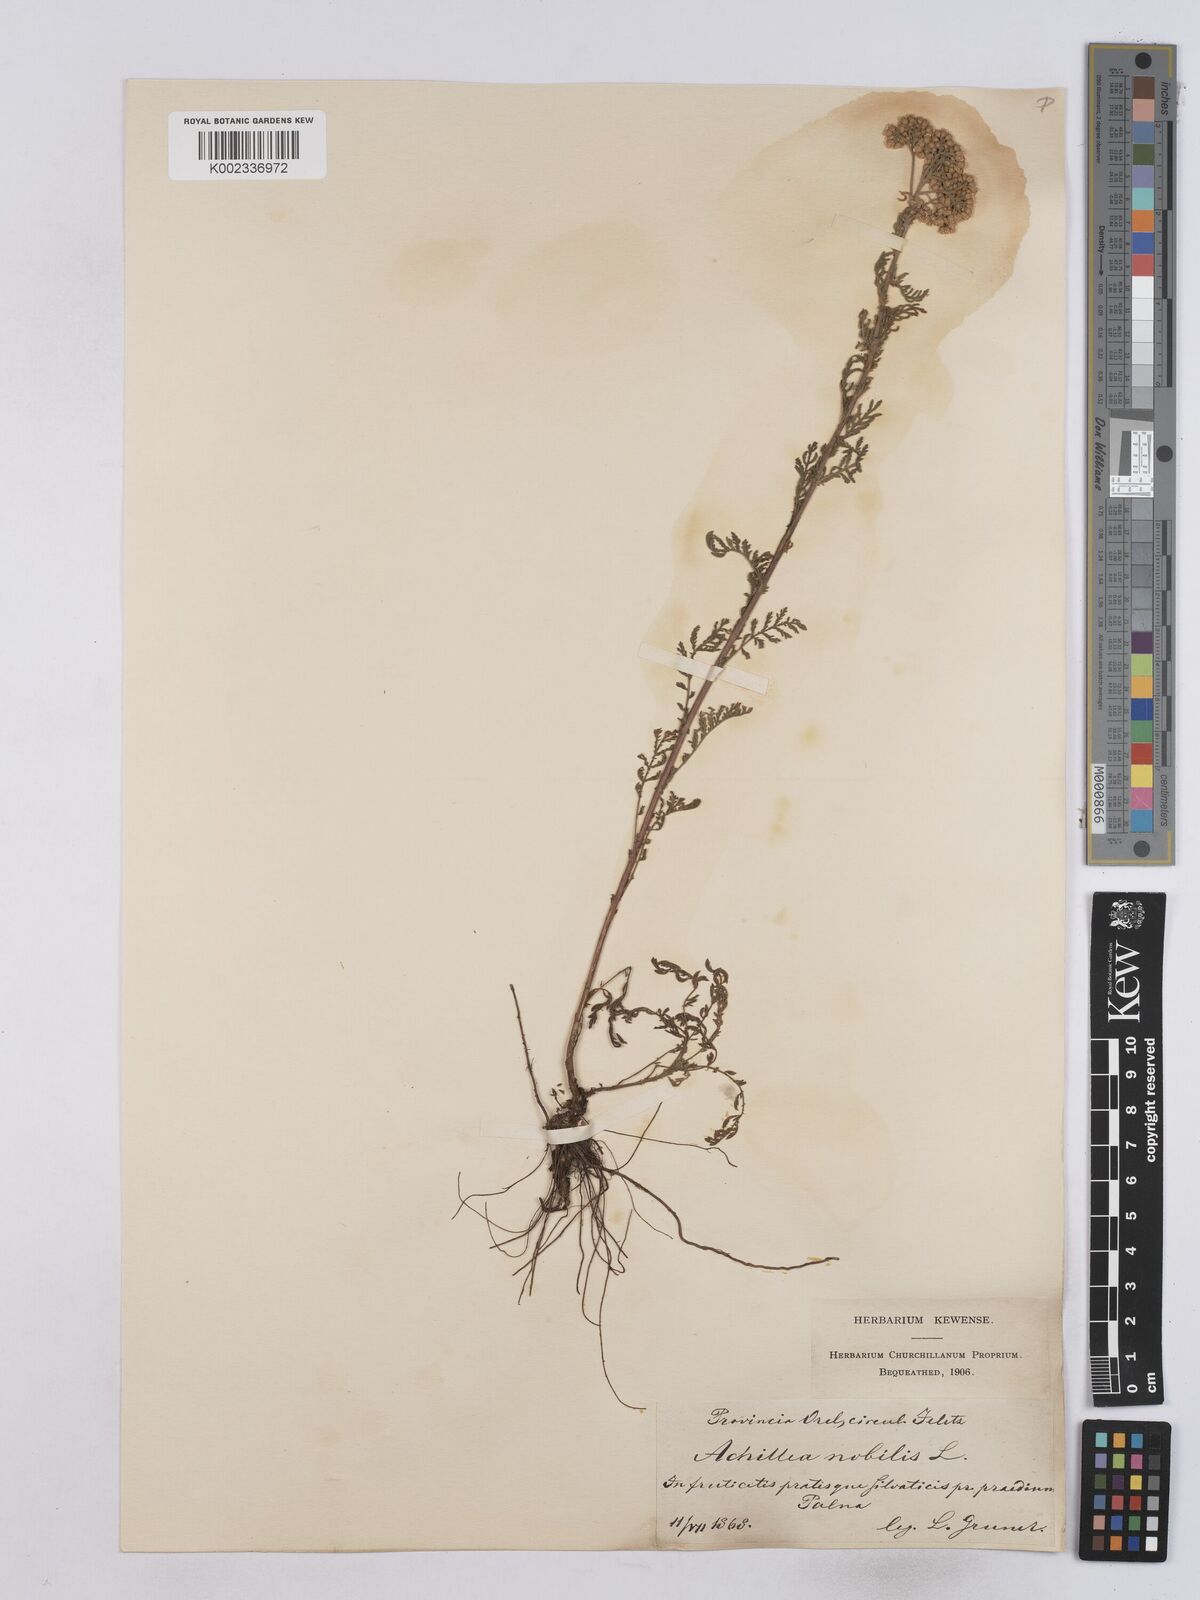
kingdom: Plantae
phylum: Tracheophyta
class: Magnoliopsida
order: Asterales
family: Asteraceae
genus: Achillea
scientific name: Achillea nobilis
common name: Noble yarrow
